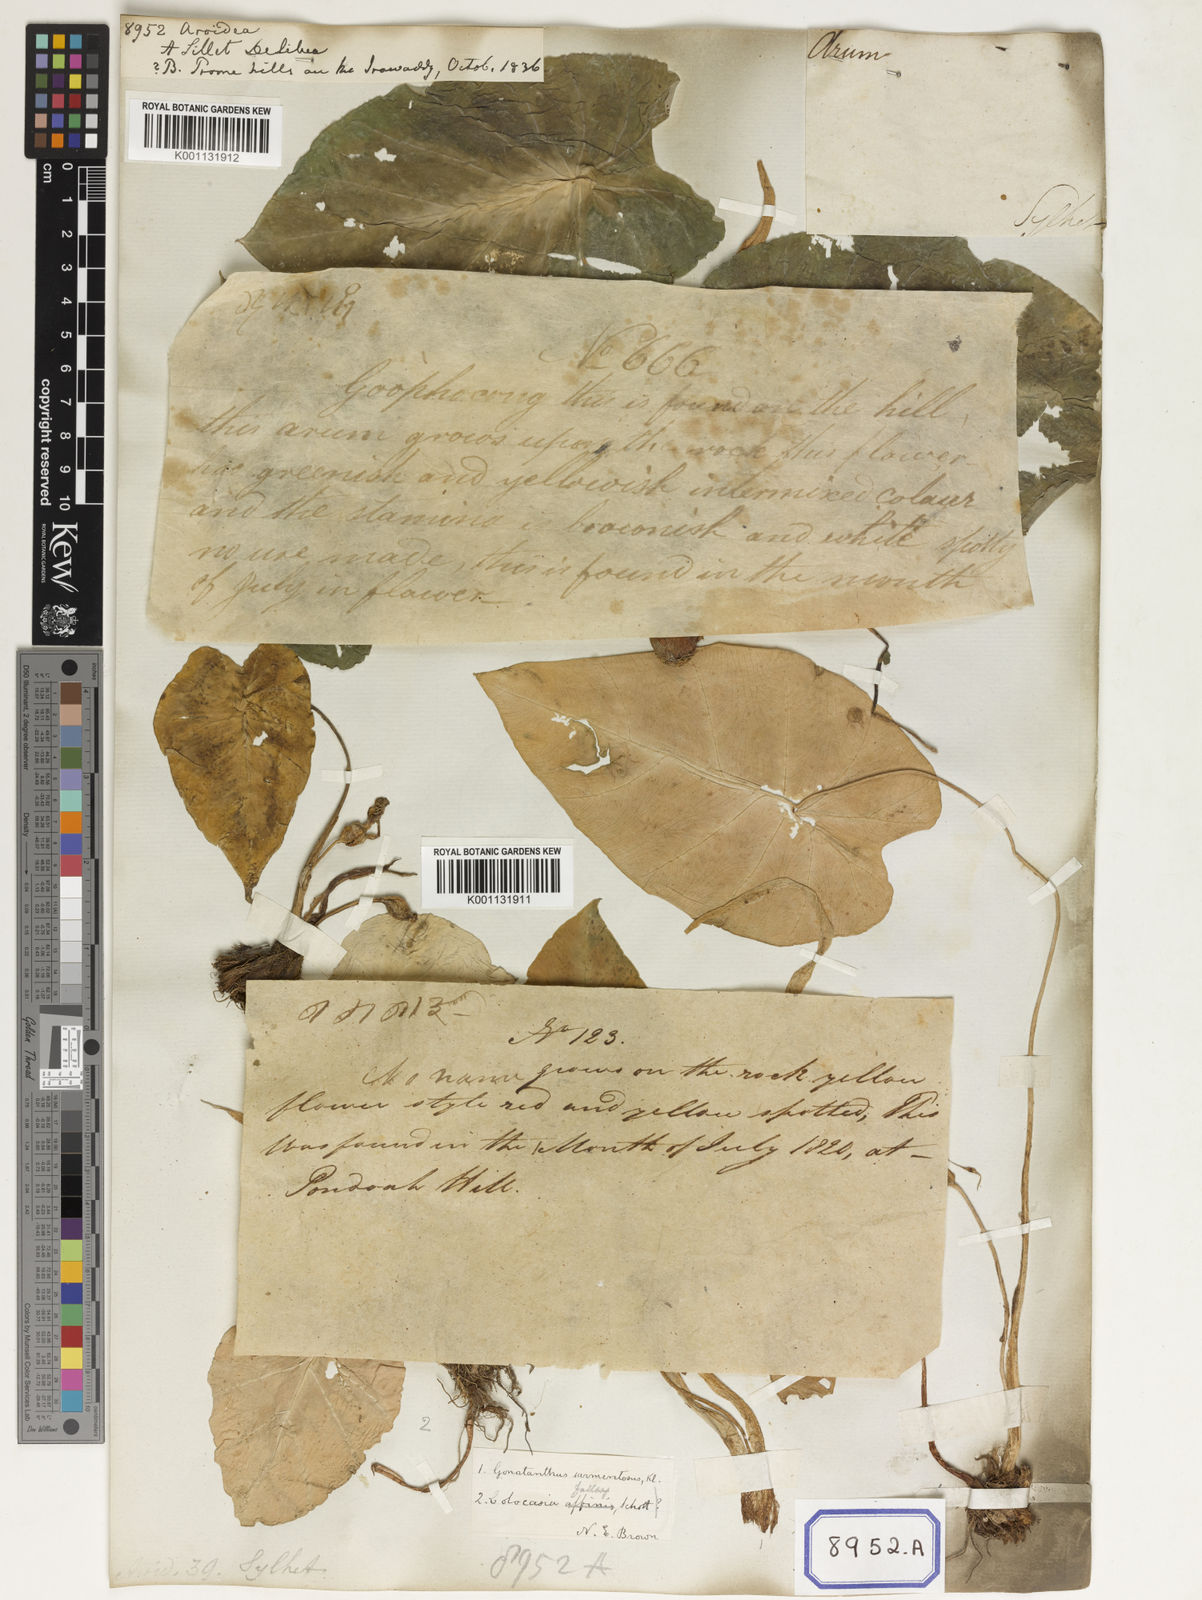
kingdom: Plantae
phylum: Tracheophyta
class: Liliopsida
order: Alismatales
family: Araceae
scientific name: Araceae
